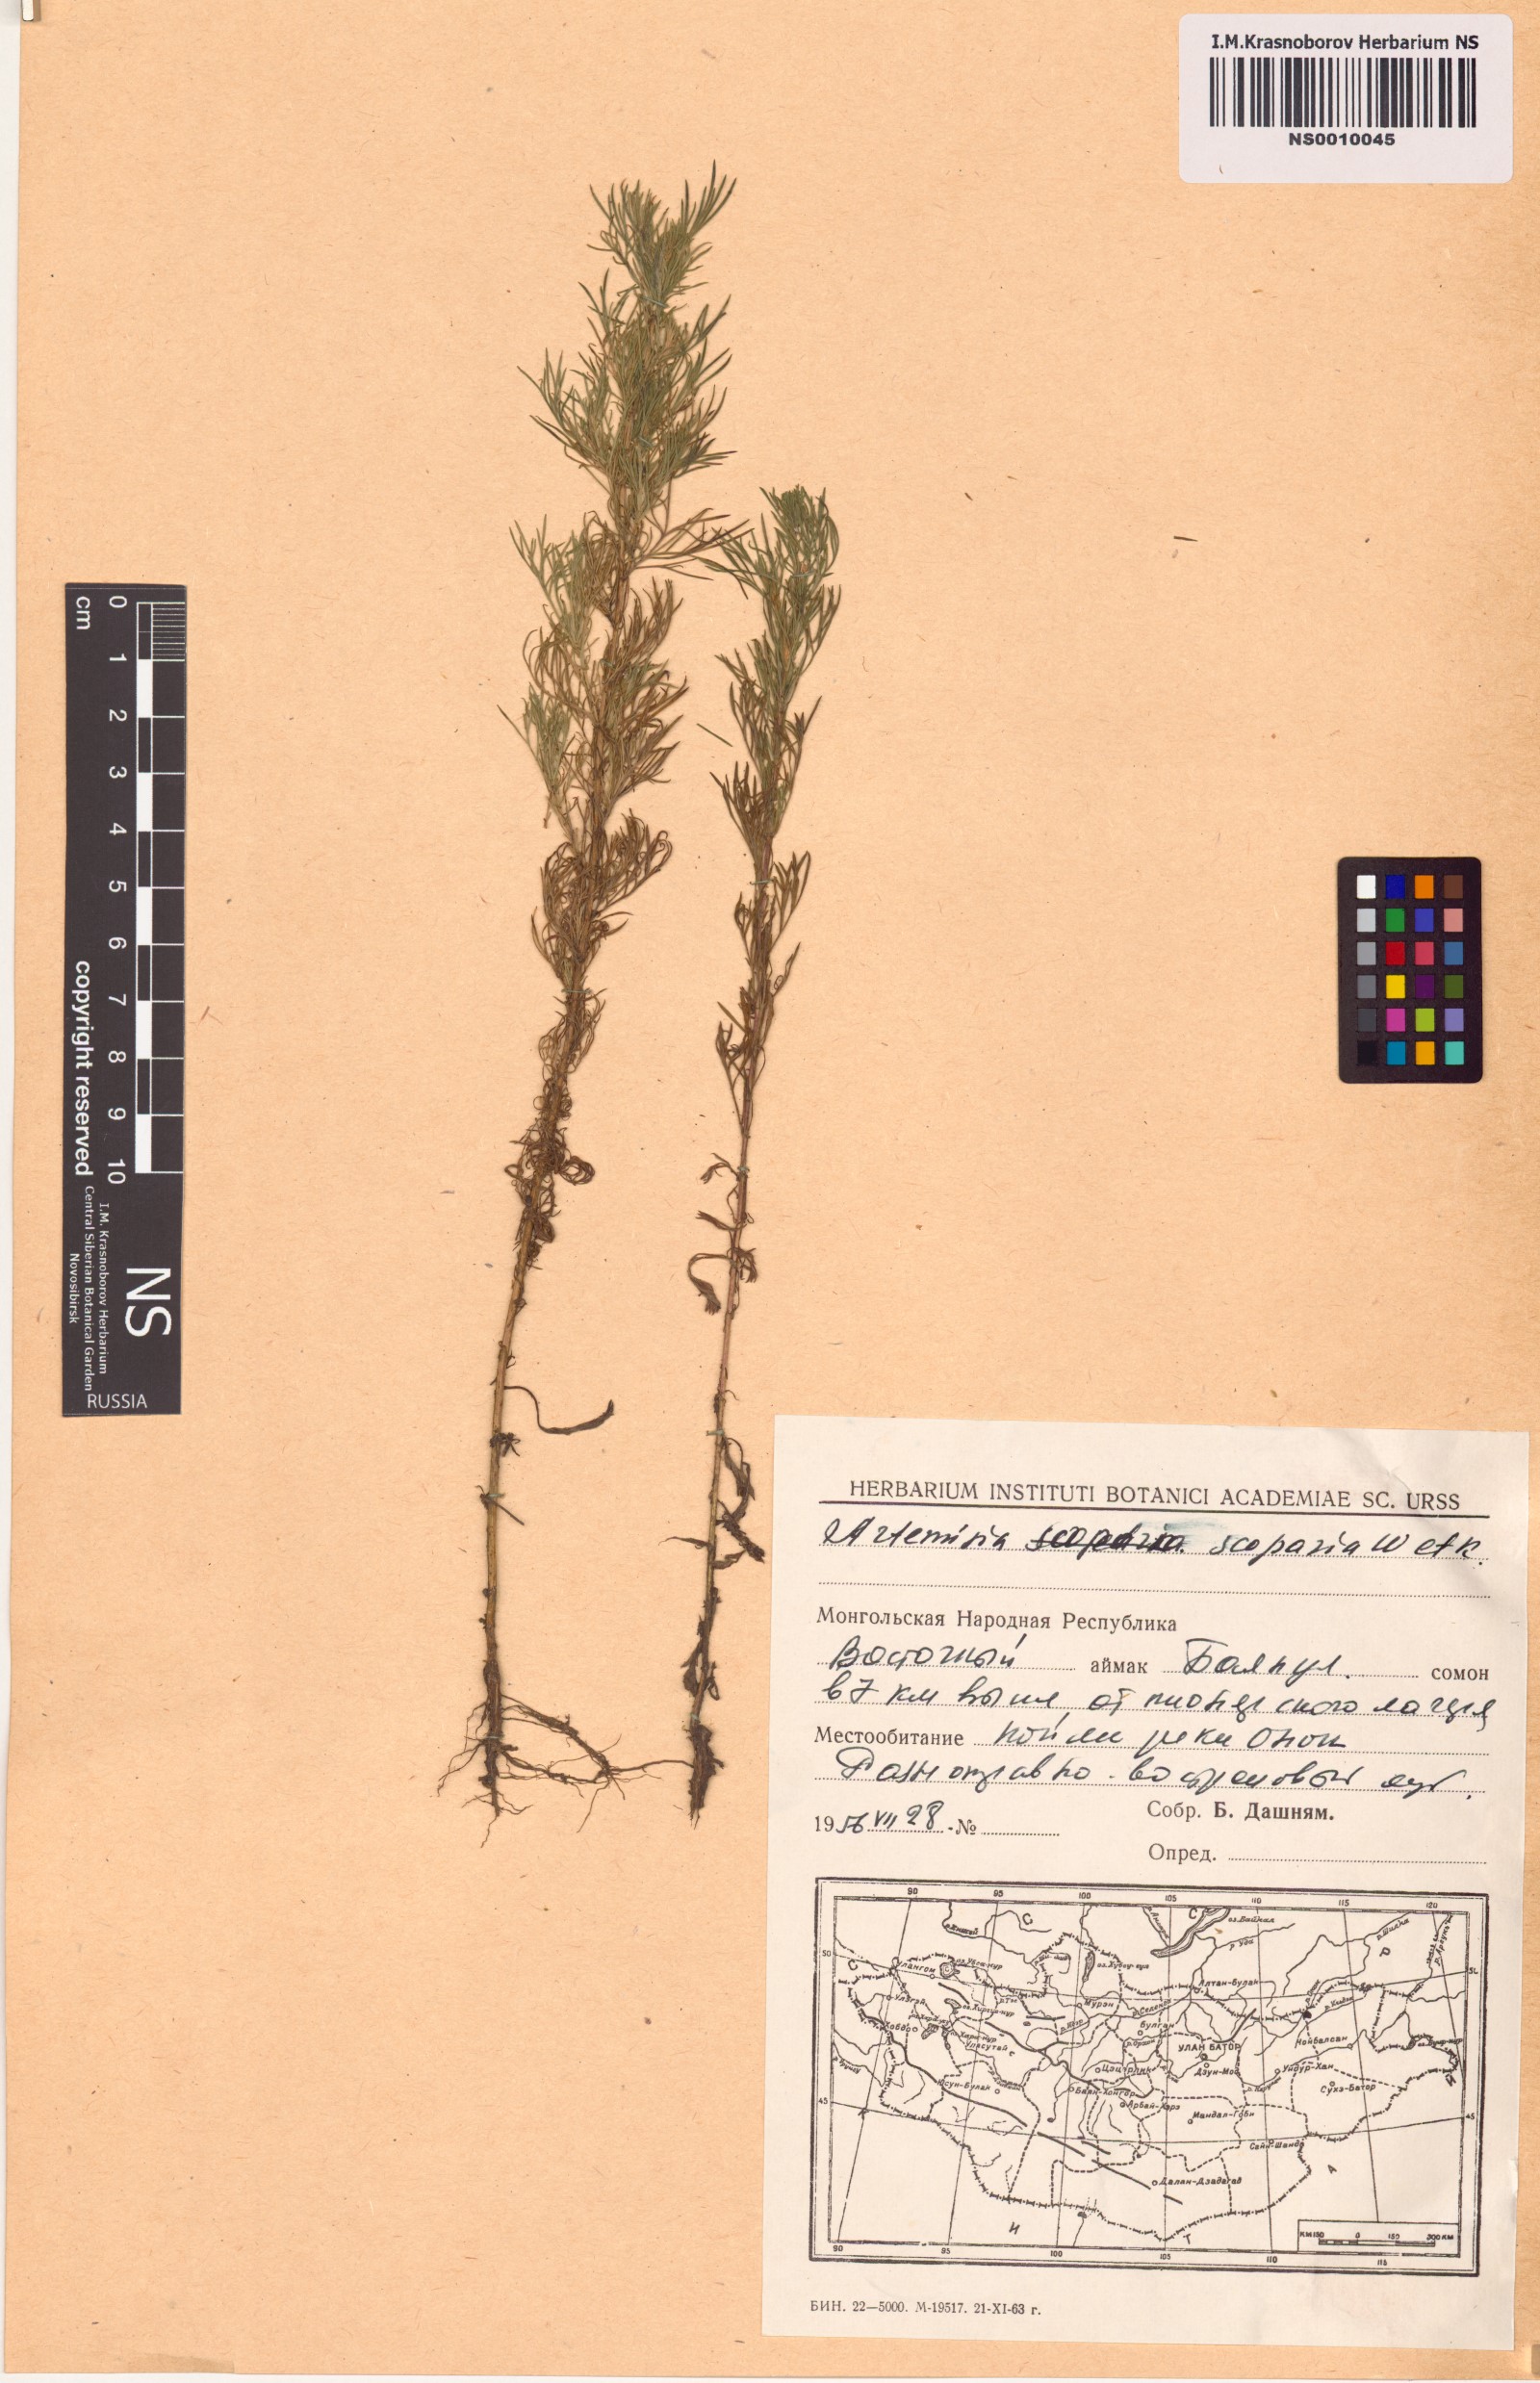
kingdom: Plantae
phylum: Tracheophyta
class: Magnoliopsida
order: Asterales
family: Asteraceae
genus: Artemisia
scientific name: Artemisia scoparia
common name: Redstem wormwood
